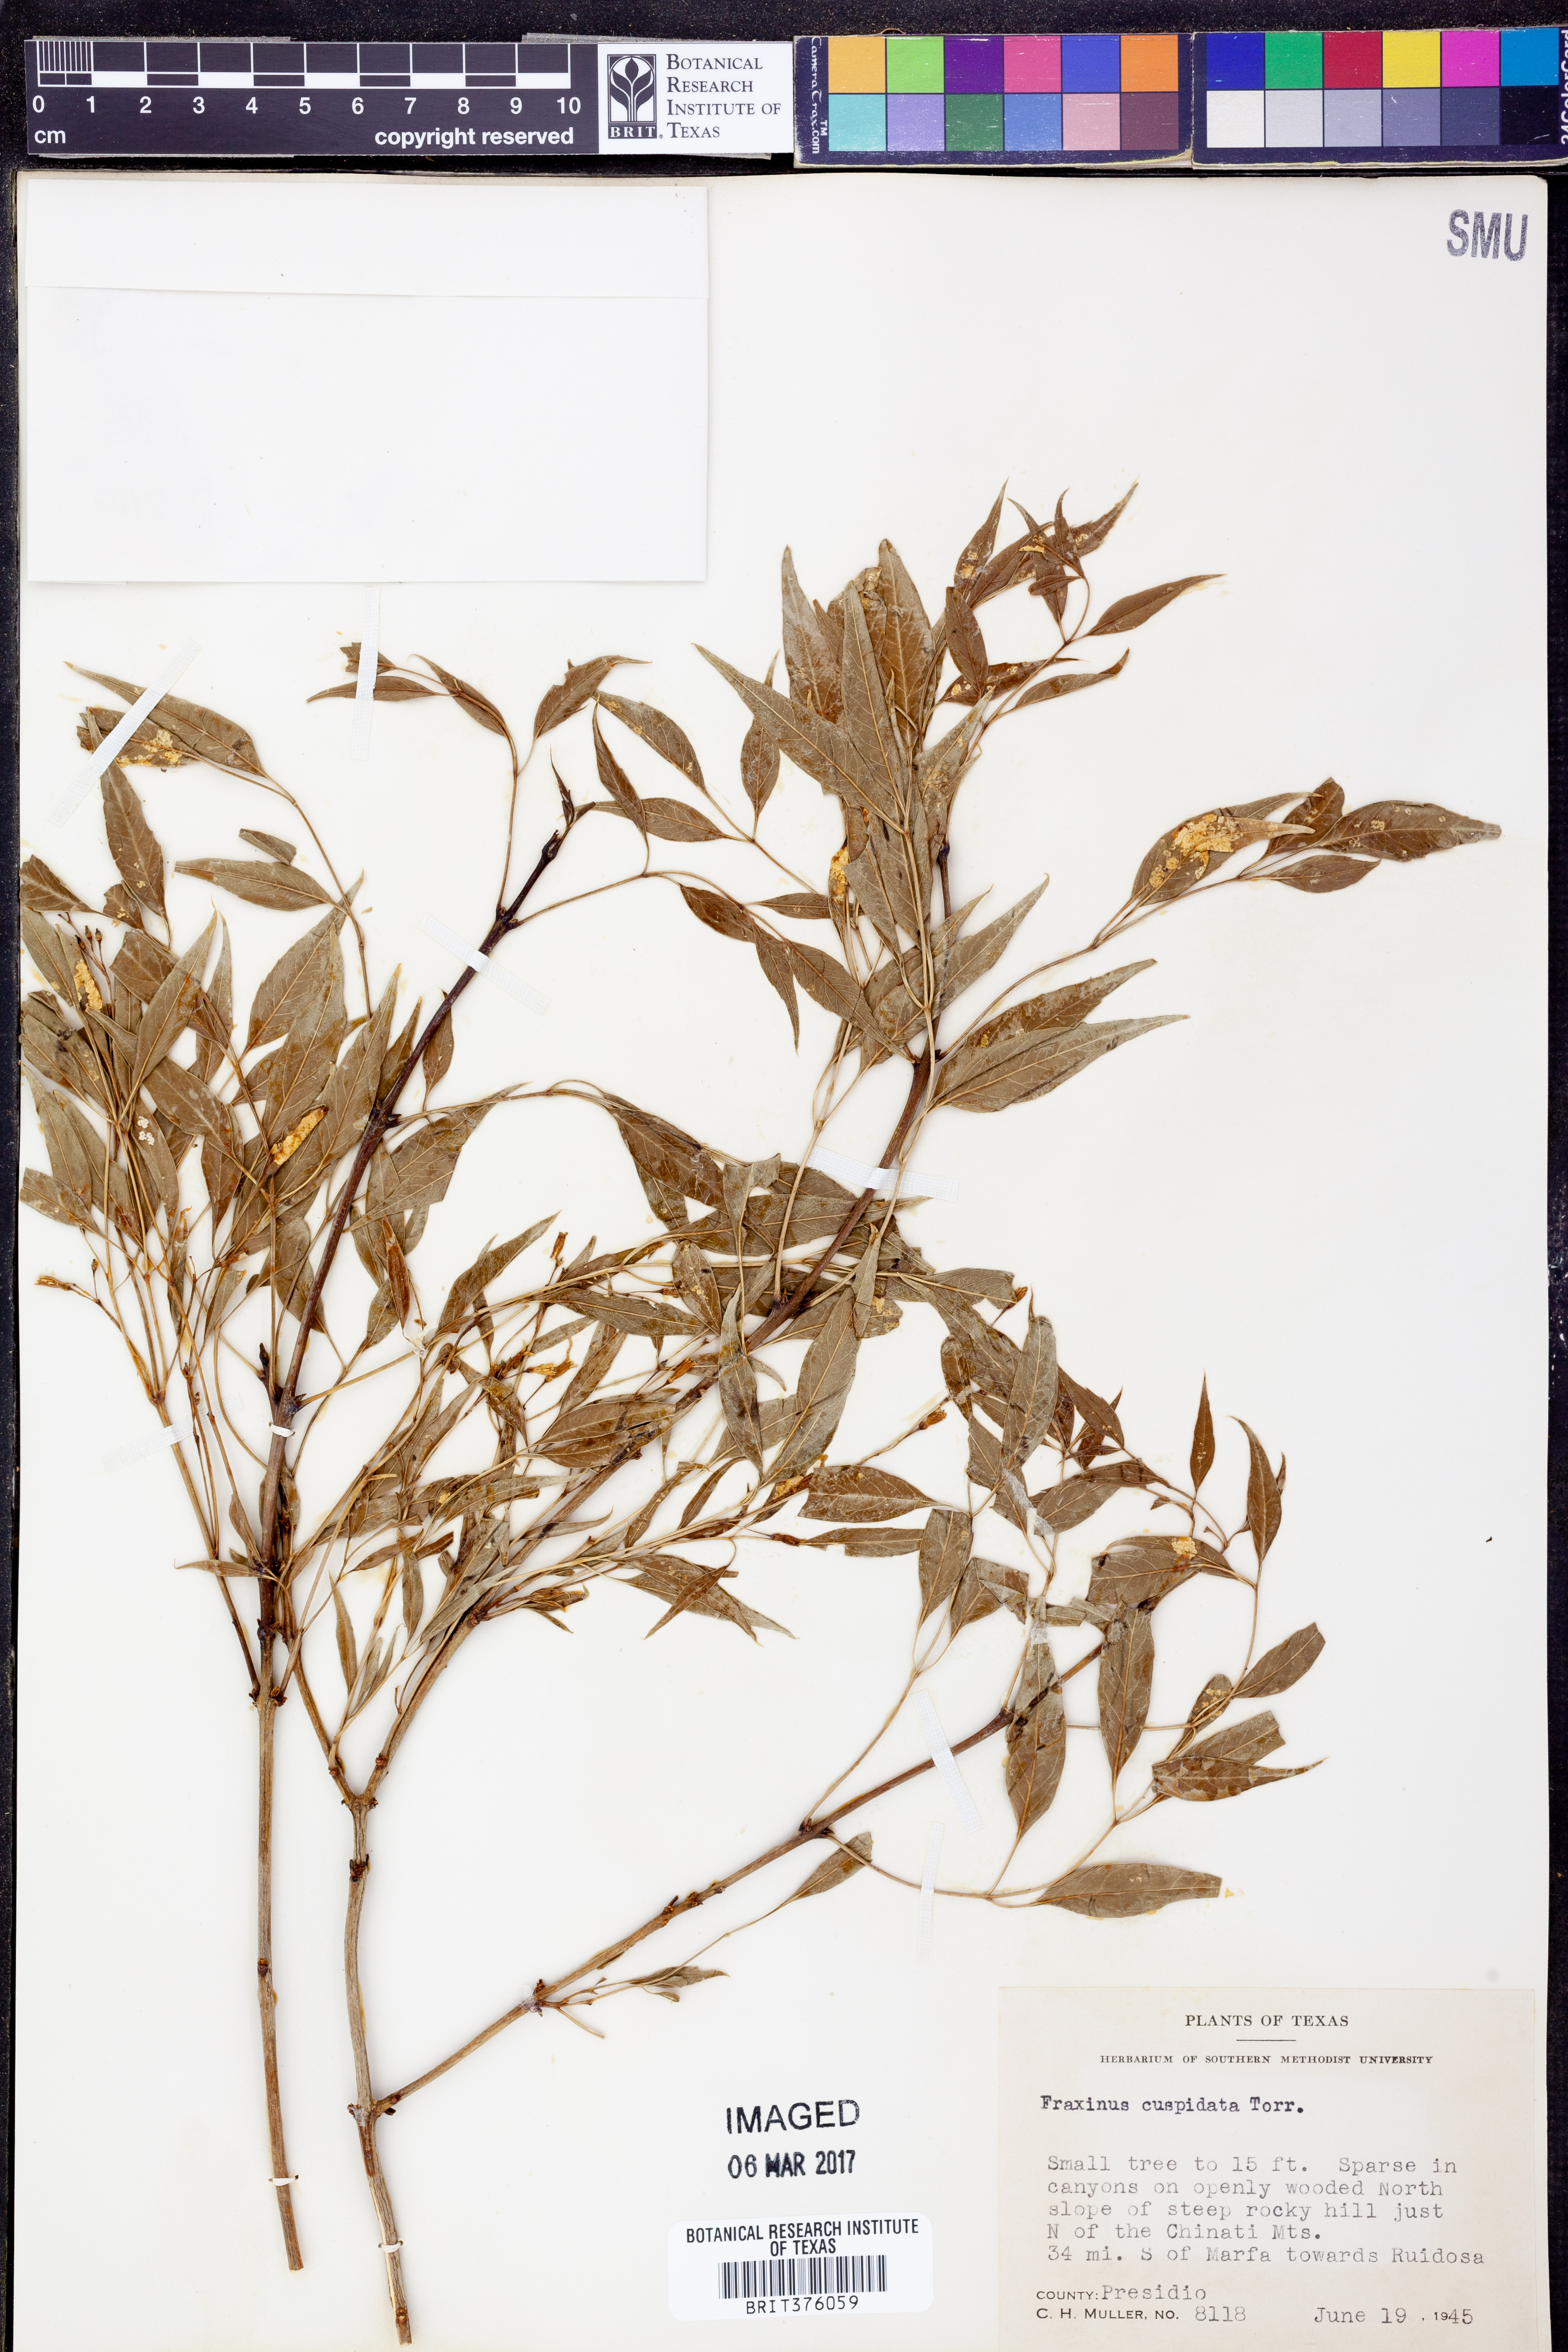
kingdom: Plantae
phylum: Tracheophyta
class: Magnoliopsida
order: Lamiales
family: Oleaceae
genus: Fraxinus
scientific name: Fraxinus cuspidata
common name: Fragrant ash
